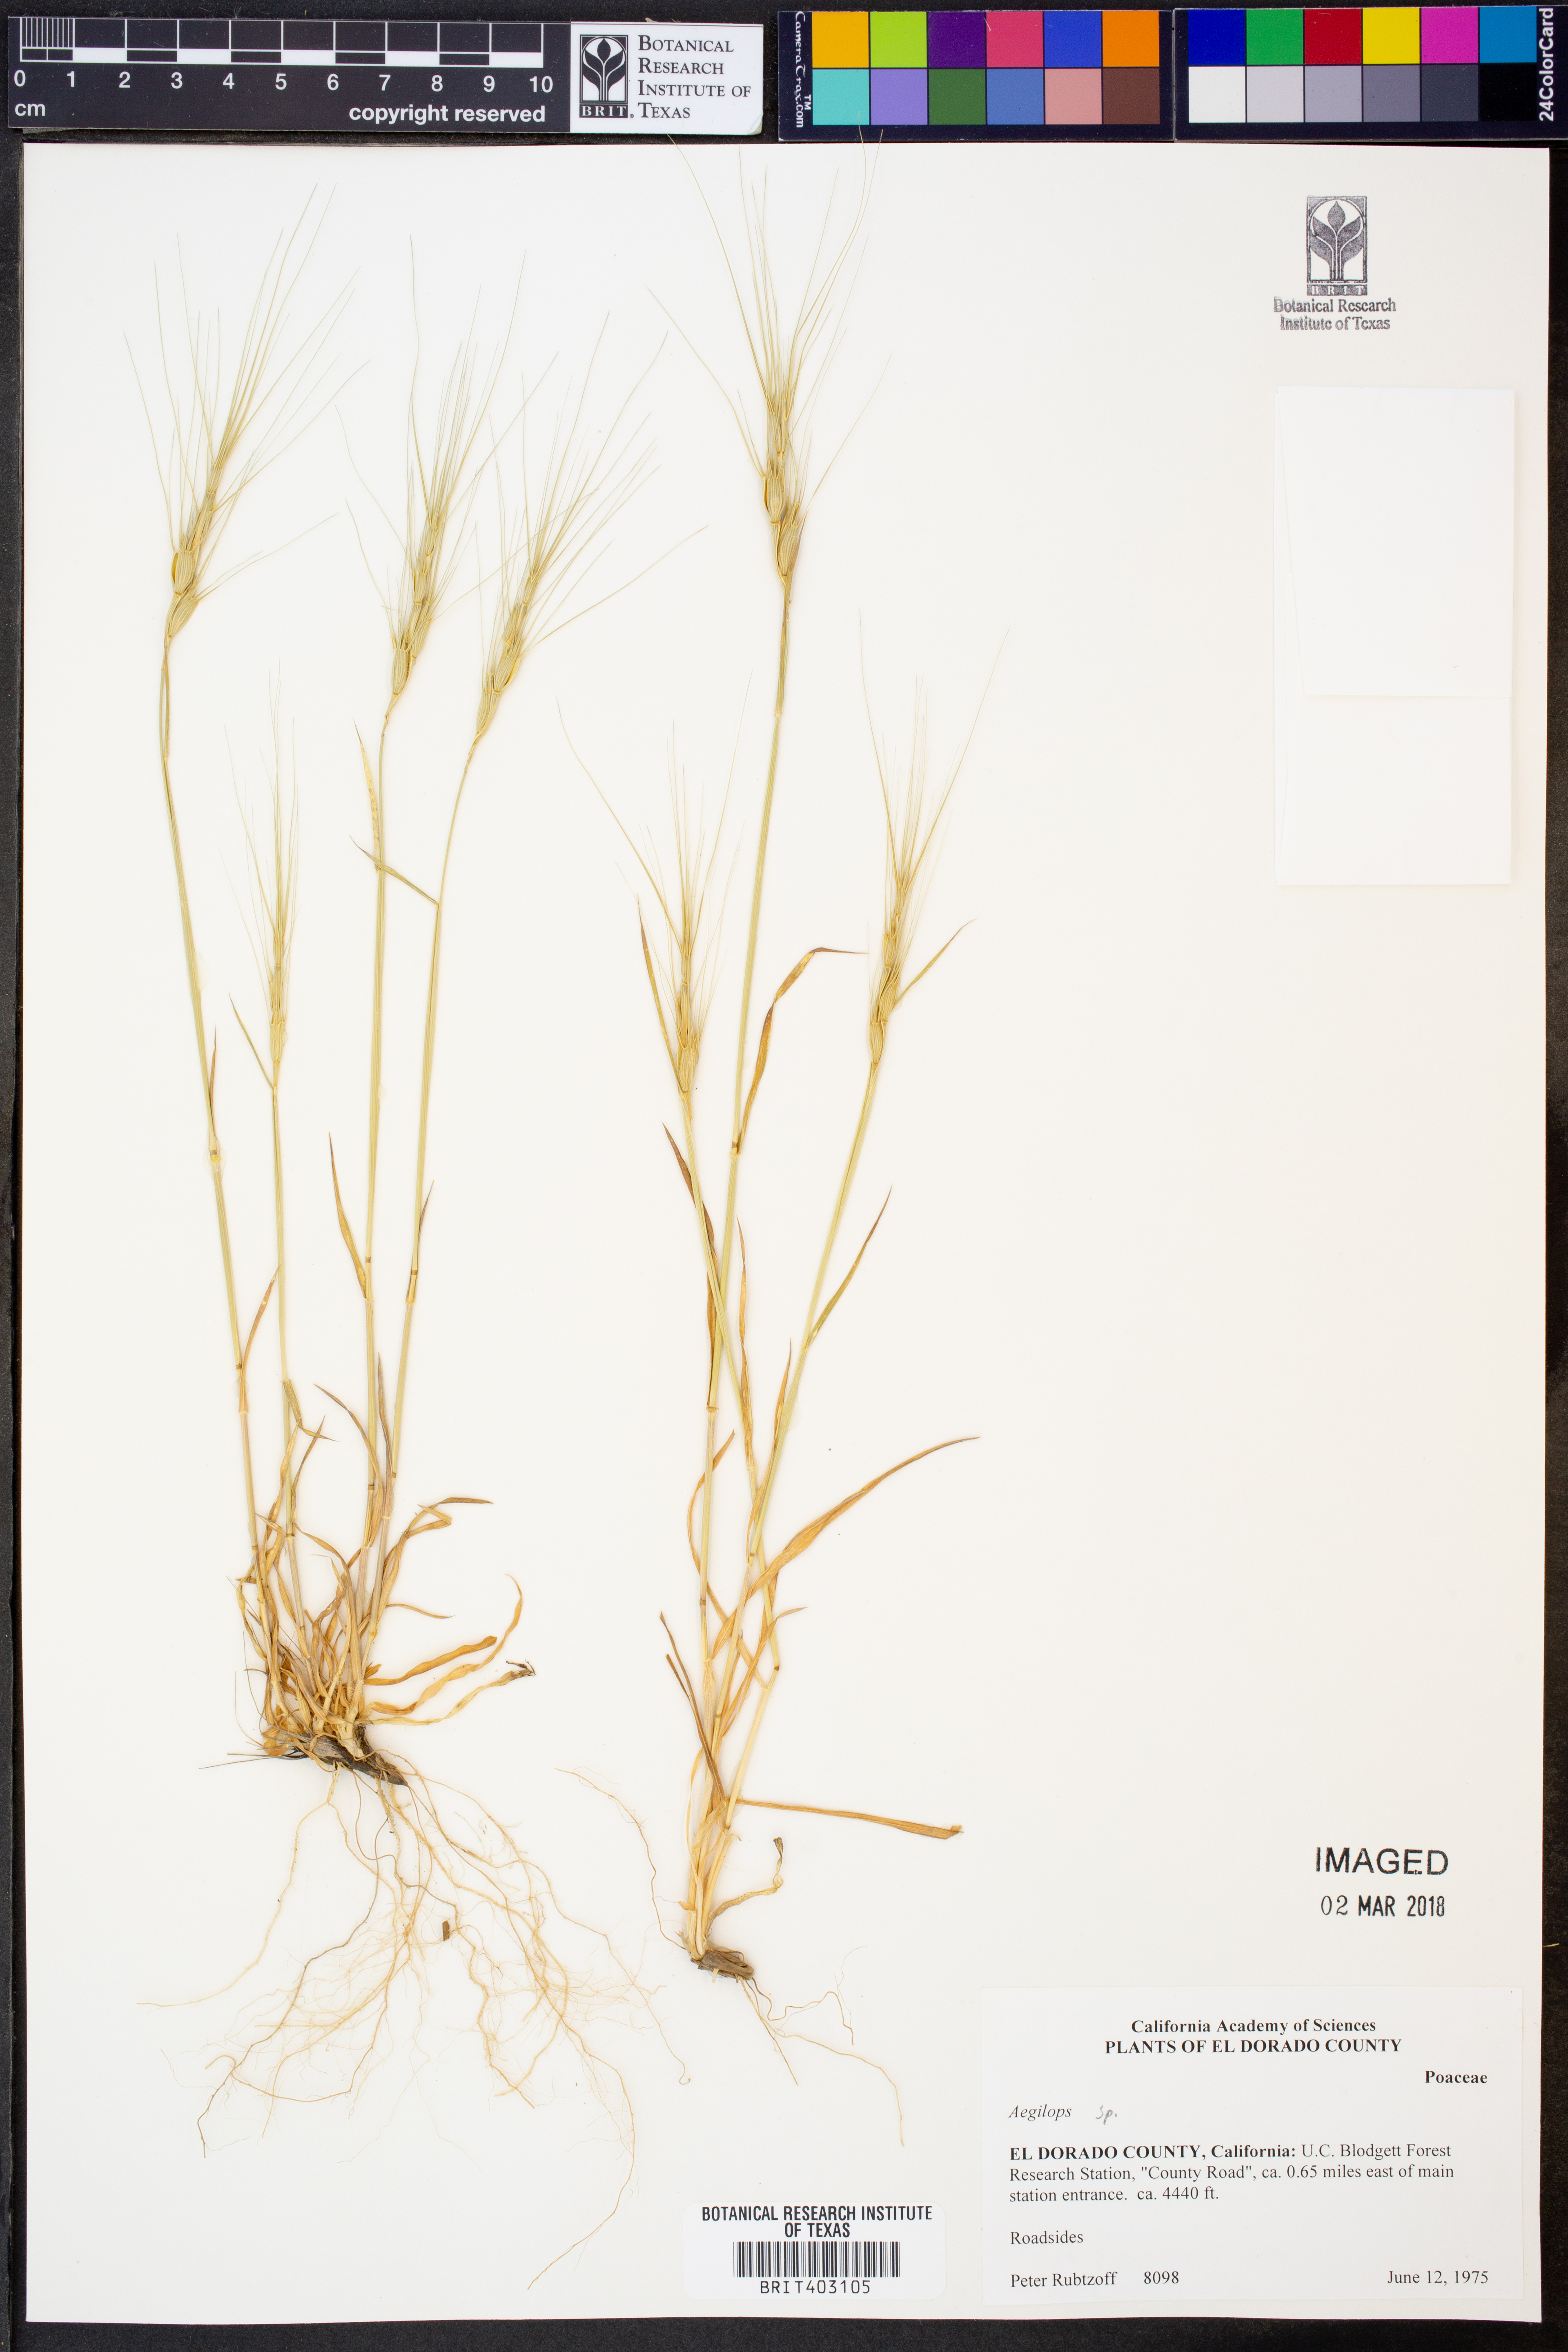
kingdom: Plantae
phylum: Tracheophyta
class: Liliopsida
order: Poales
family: Poaceae
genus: Aegilops
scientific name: Aegilops
